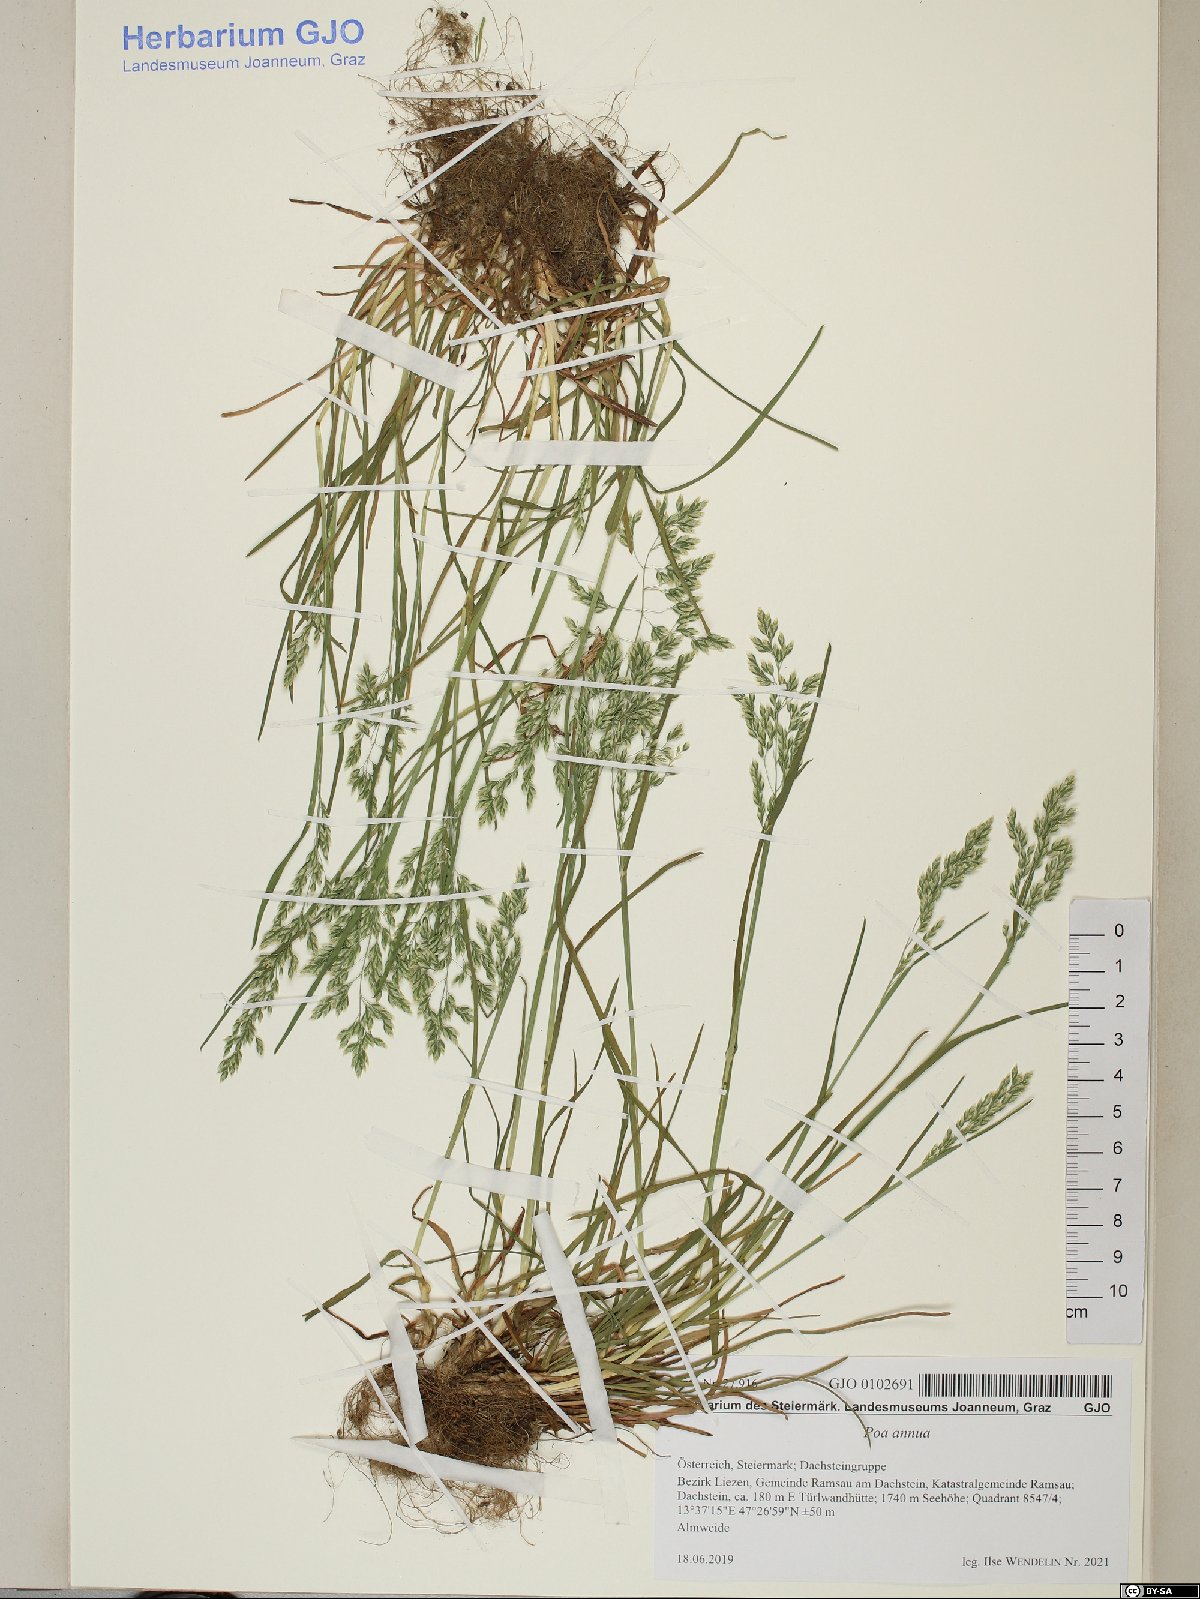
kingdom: Plantae
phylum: Tracheophyta
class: Liliopsida
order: Poales
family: Poaceae
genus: Poa
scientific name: Poa annua
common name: Annual bluegrass
